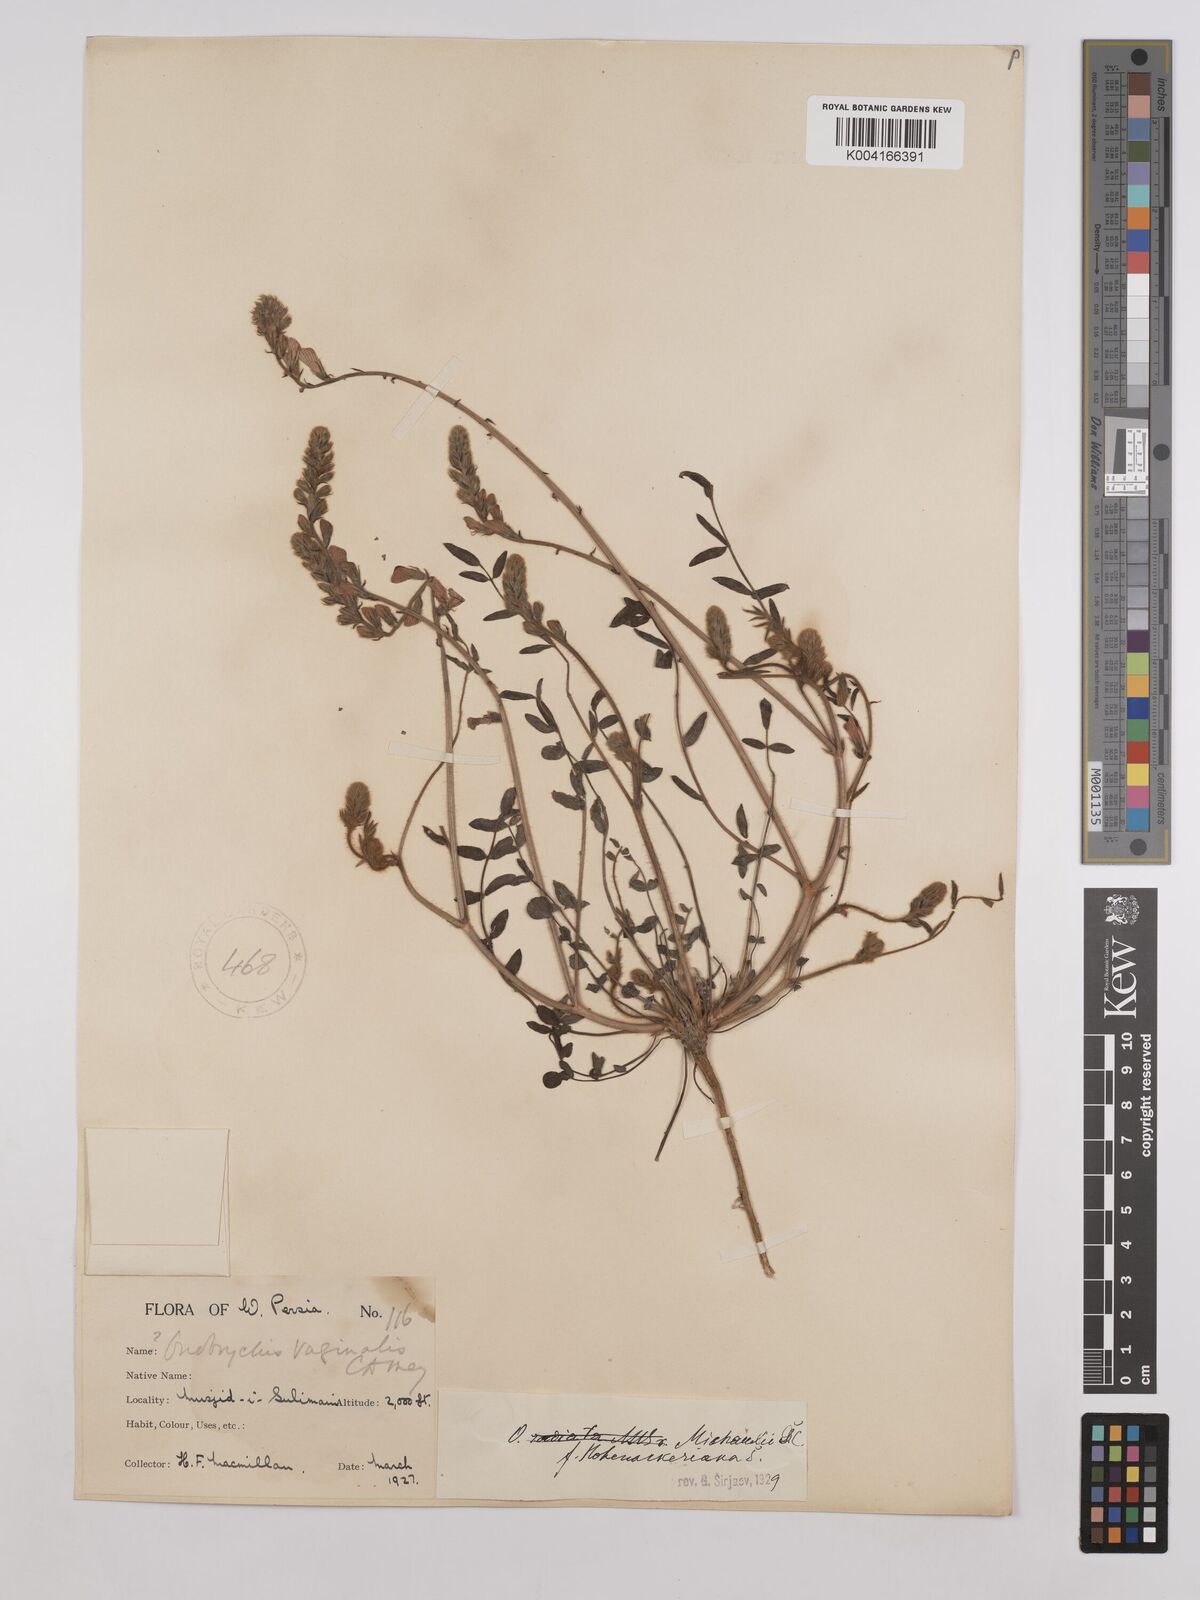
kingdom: Plantae
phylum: Tracheophyta
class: Magnoliopsida
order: Fabales
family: Fabaceae
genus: Onobrychis
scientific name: Onobrychis michauxii
